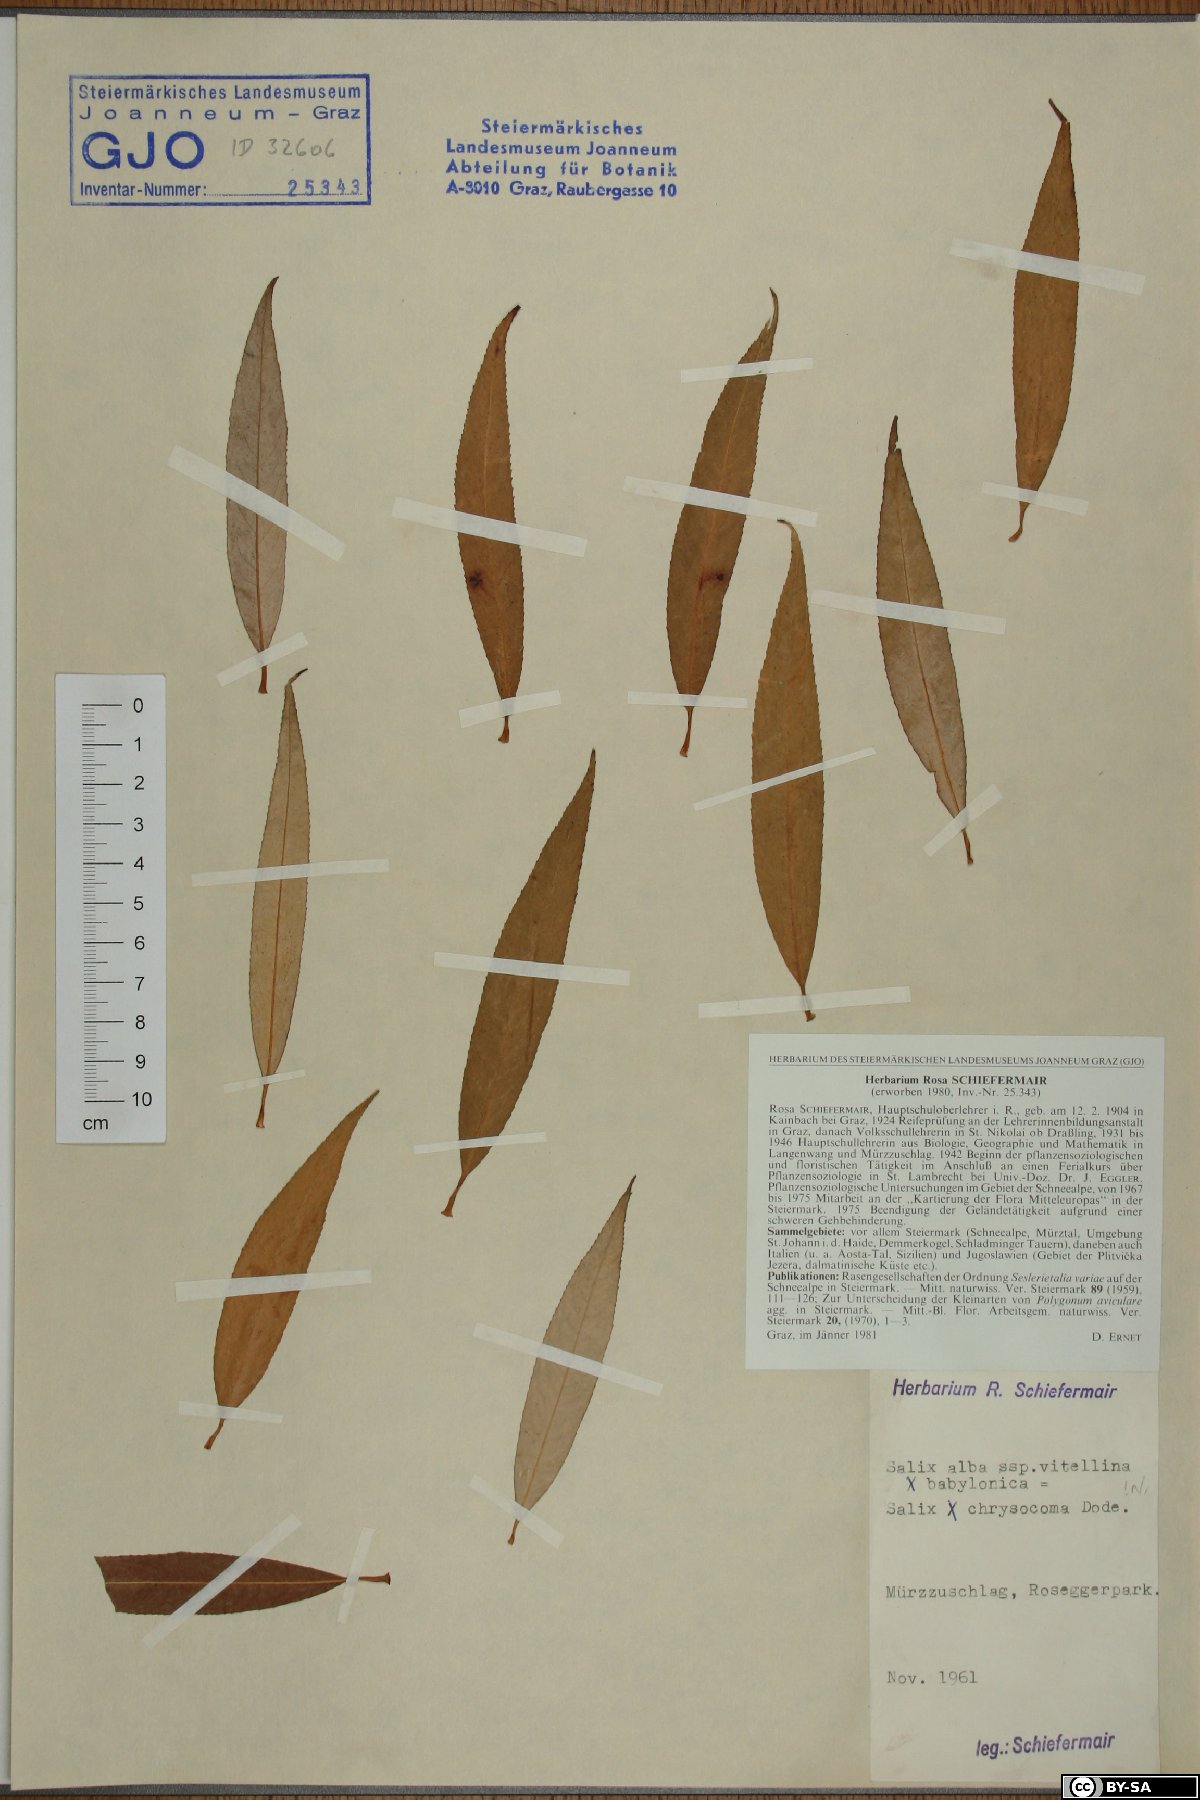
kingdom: Plantae
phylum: Tracheophyta
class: Magnoliopsida
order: Malpighiales
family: Salicaceae
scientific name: Salicaceae
